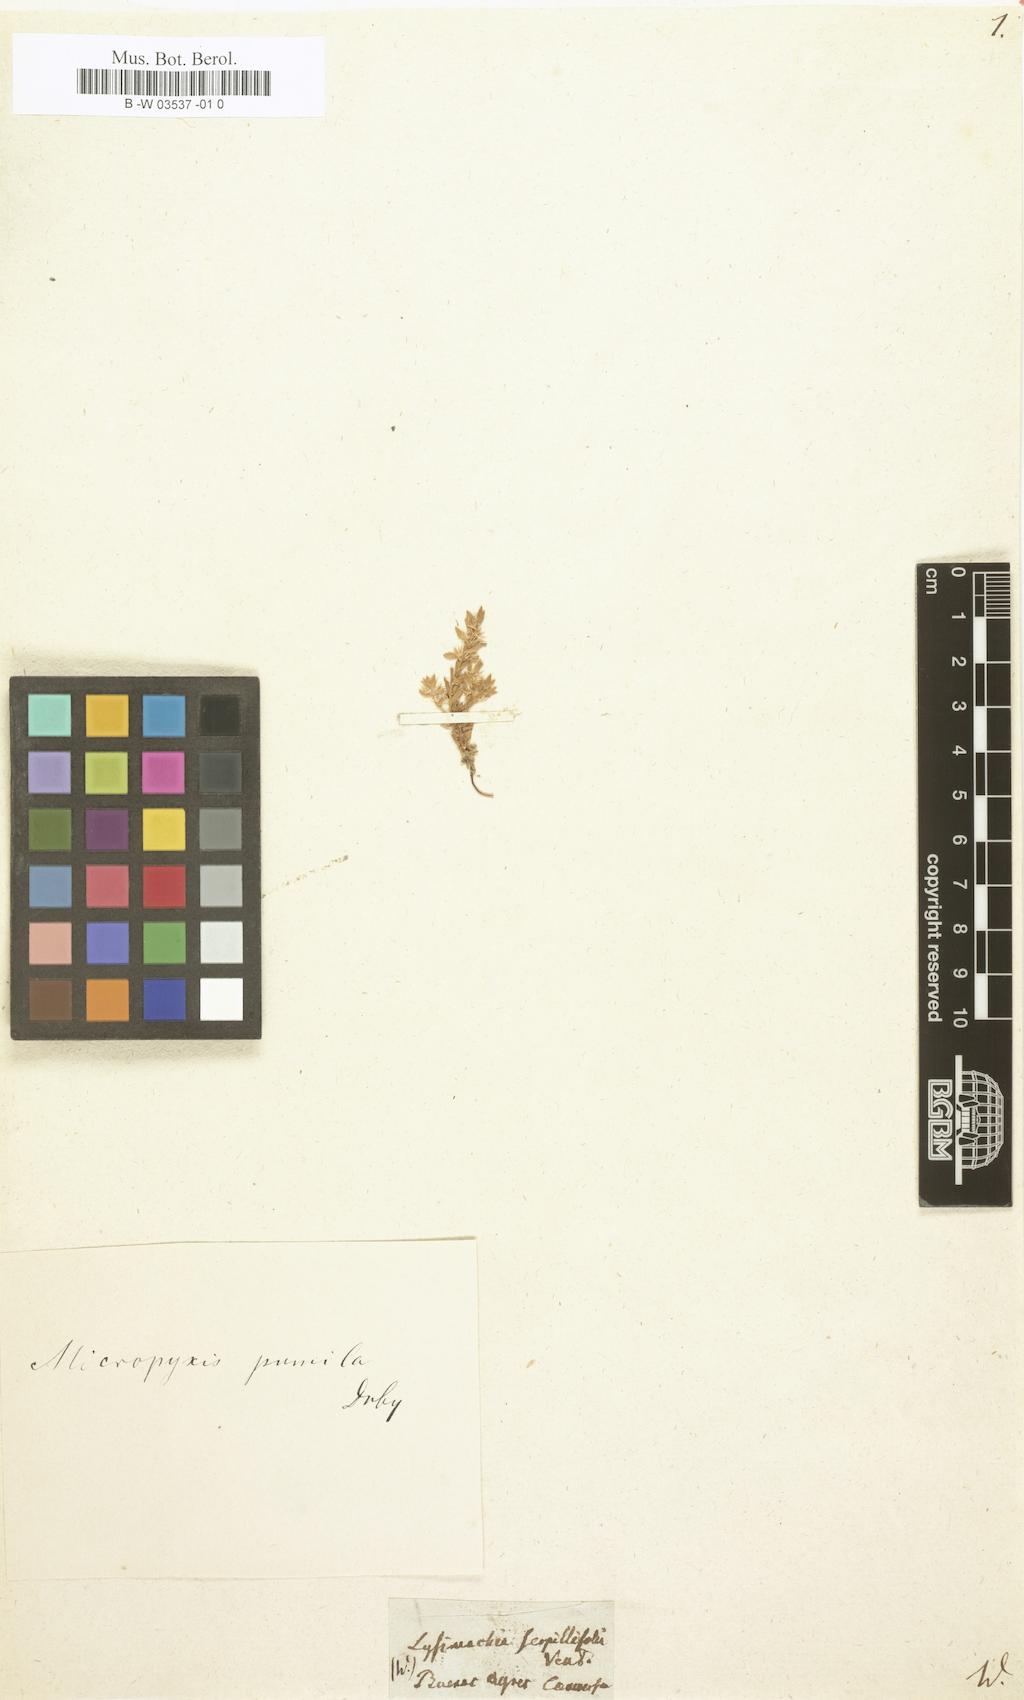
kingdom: Plantae
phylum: Tracheophyta
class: Magnoliopsida
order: Ericales
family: Primulaceae
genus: Lysimachia
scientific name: Lysimachia serpyllifolia
